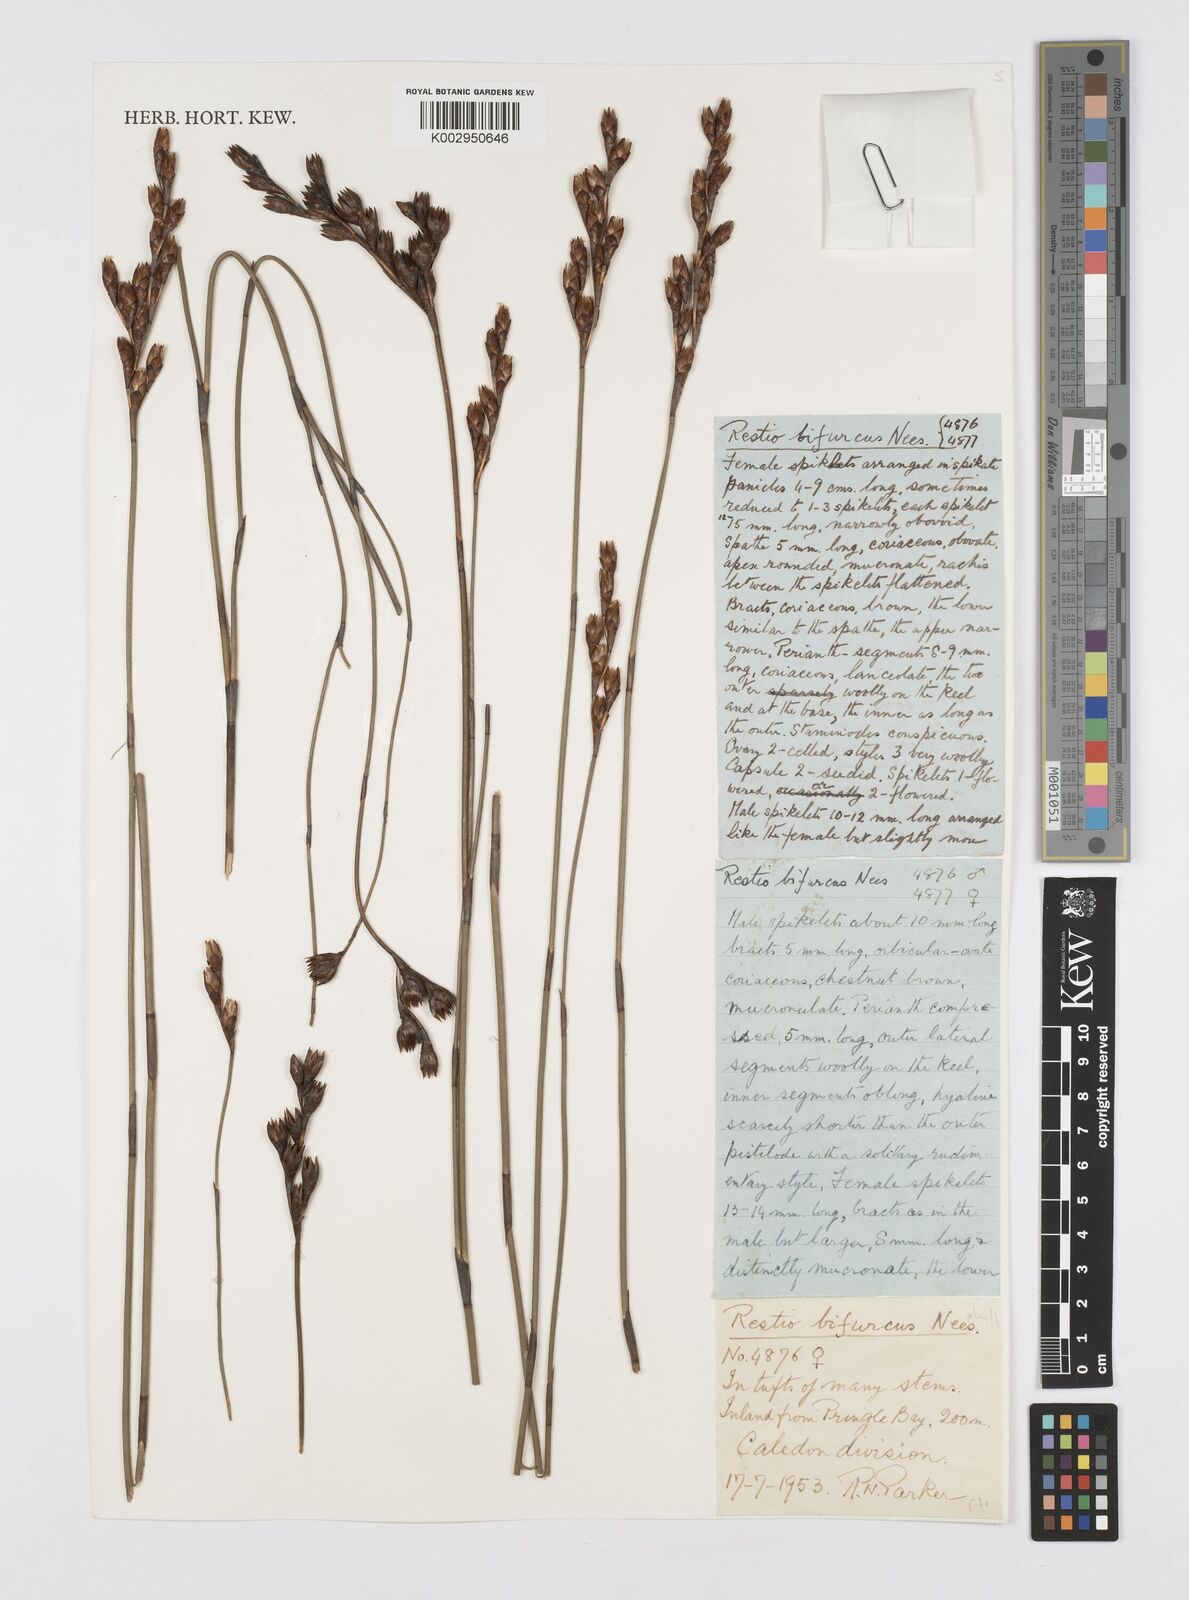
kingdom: Plantae
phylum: Tracheophyta
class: Liliopsida
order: Poales
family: Restionaceae
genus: Restio
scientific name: Restio bifurcus
